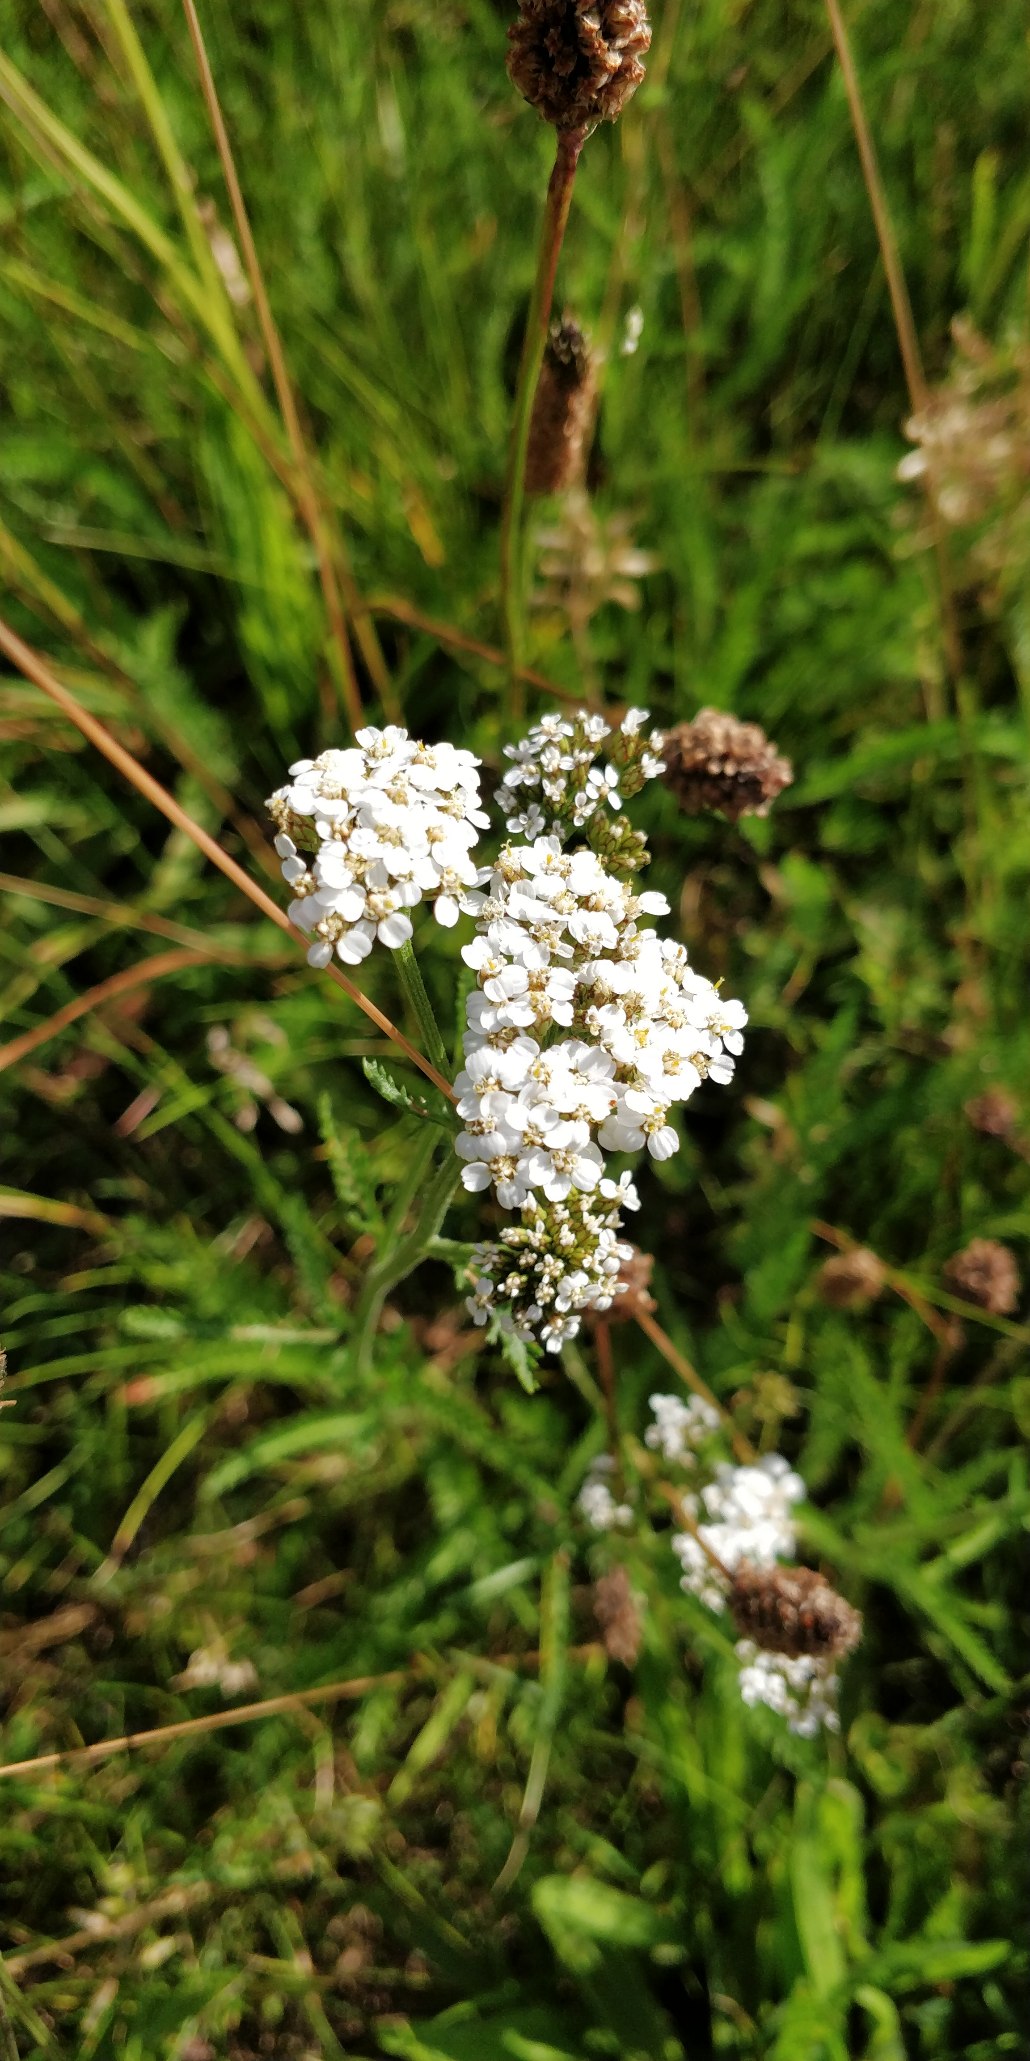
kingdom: Plantae
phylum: Tracheophyta
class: Magnoliopsida
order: Asterales
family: Asteraceae
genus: Achillea
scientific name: Achillea millefolium
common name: Almindelig røllike
